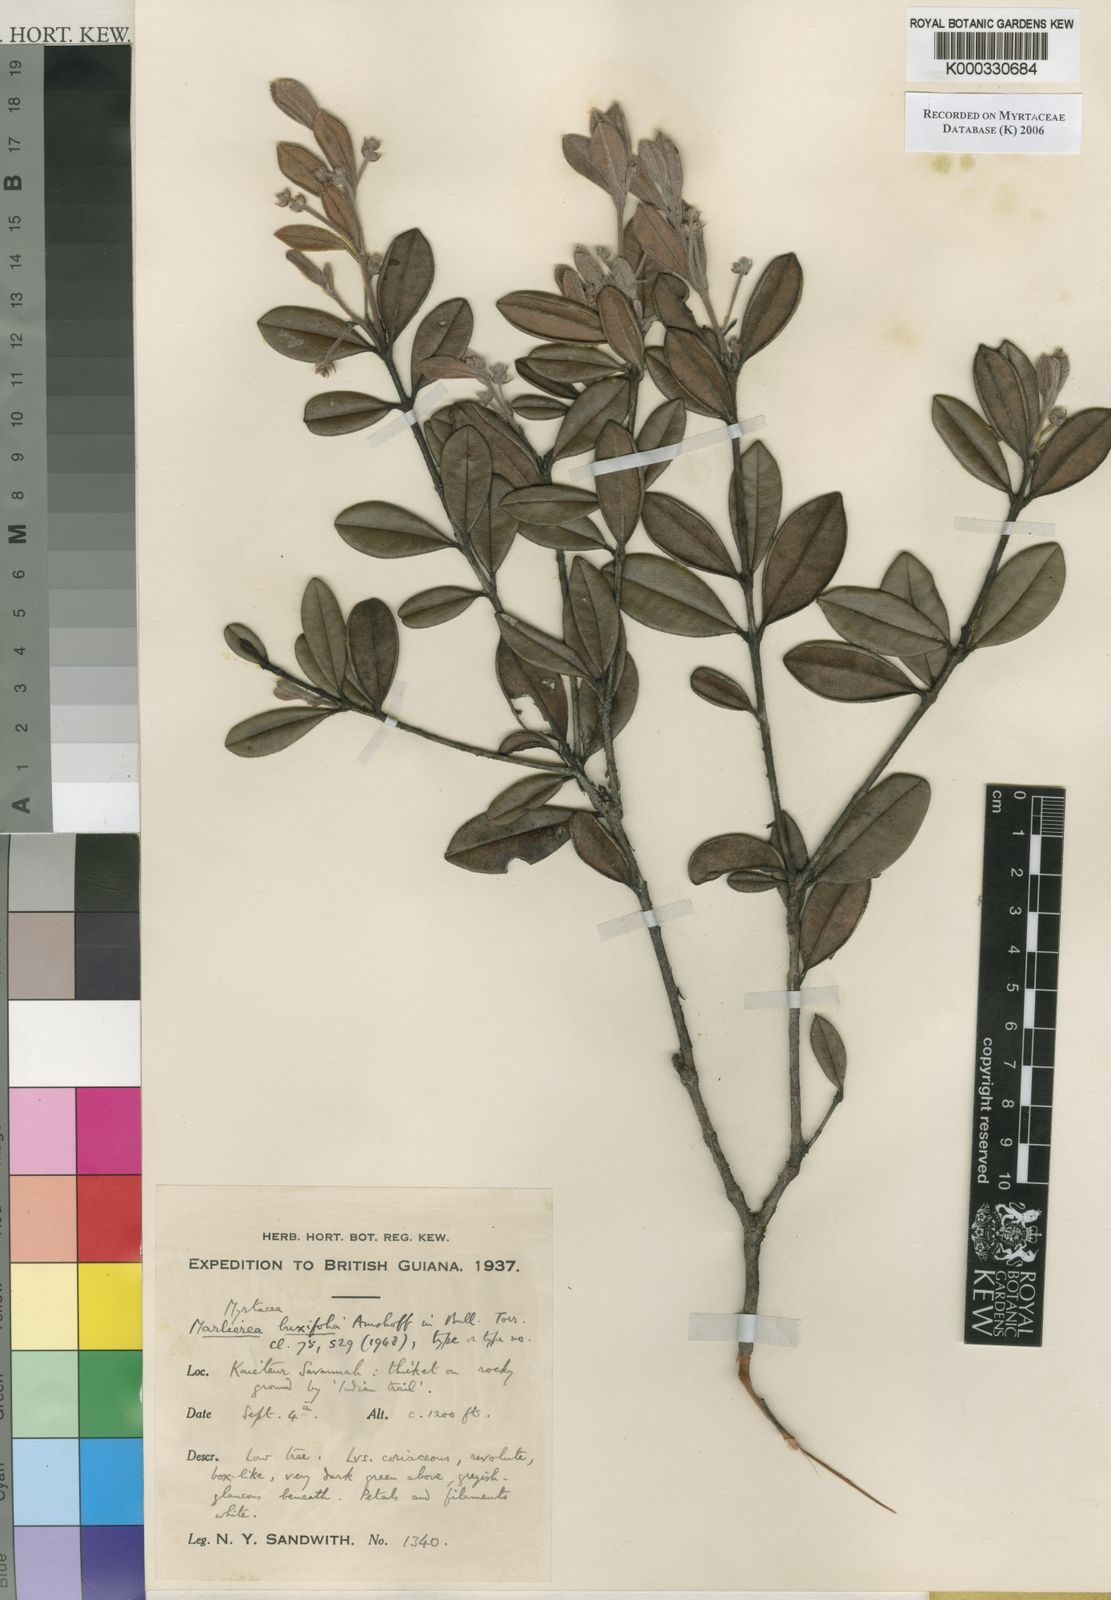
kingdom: Plantae
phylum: Tracheophyta
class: Magnoliopsida
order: Myrtales
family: Myrtaceae
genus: Myrcia
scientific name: Myrcia neobuxifolia
